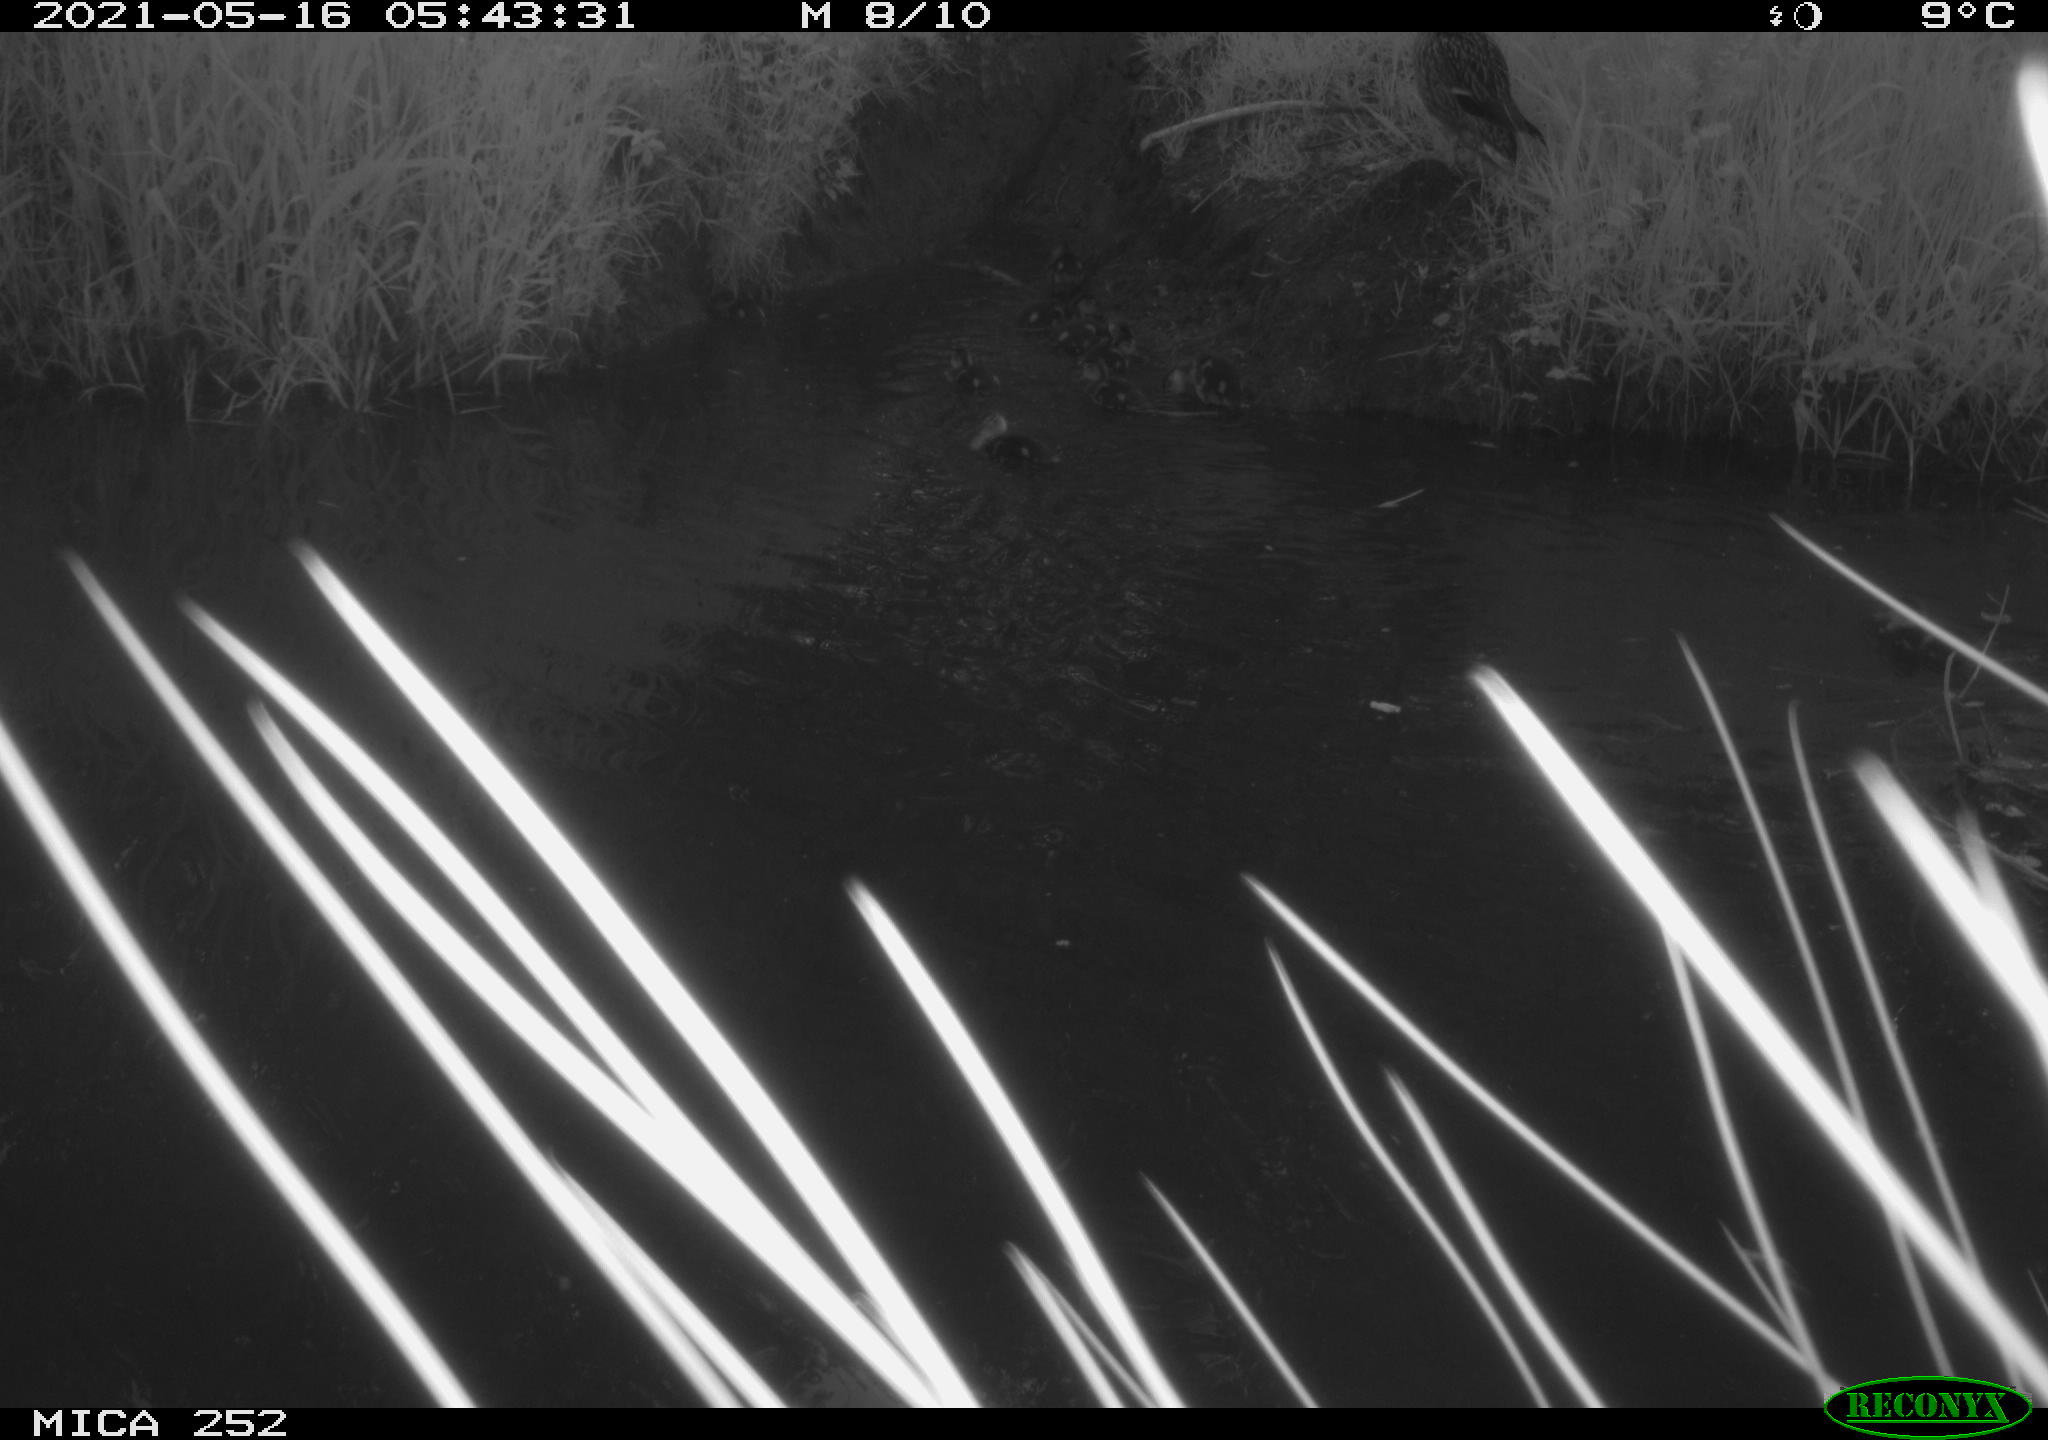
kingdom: Animalia
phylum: Chordata
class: Aves
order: Anseriformes
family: Anatidae
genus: Anas
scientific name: Anas platyrhynchos
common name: Mallard
